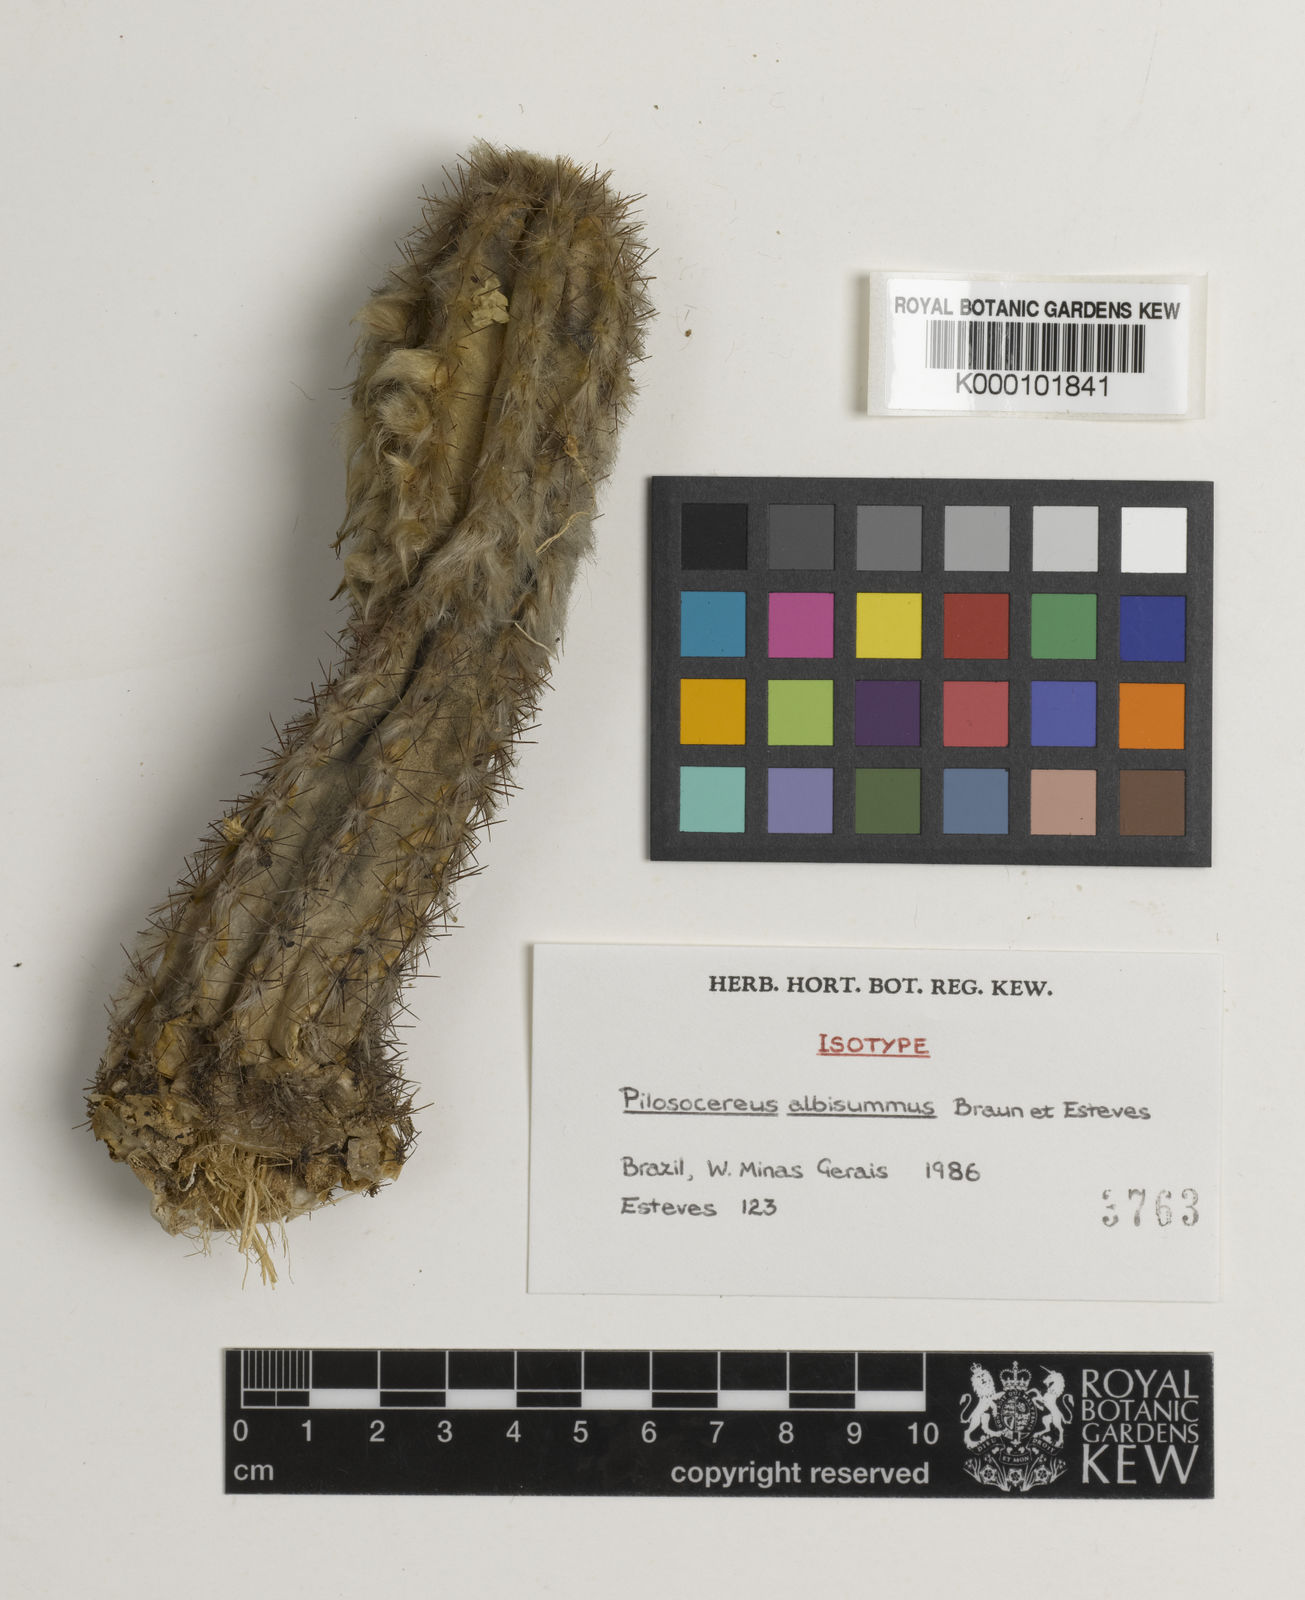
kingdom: Plantae
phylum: Tracheophyta
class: Magnoliopsida
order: Caryophyllales
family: Cactaceae
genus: Pilosocereus
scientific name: Pilosocereus albisummus
